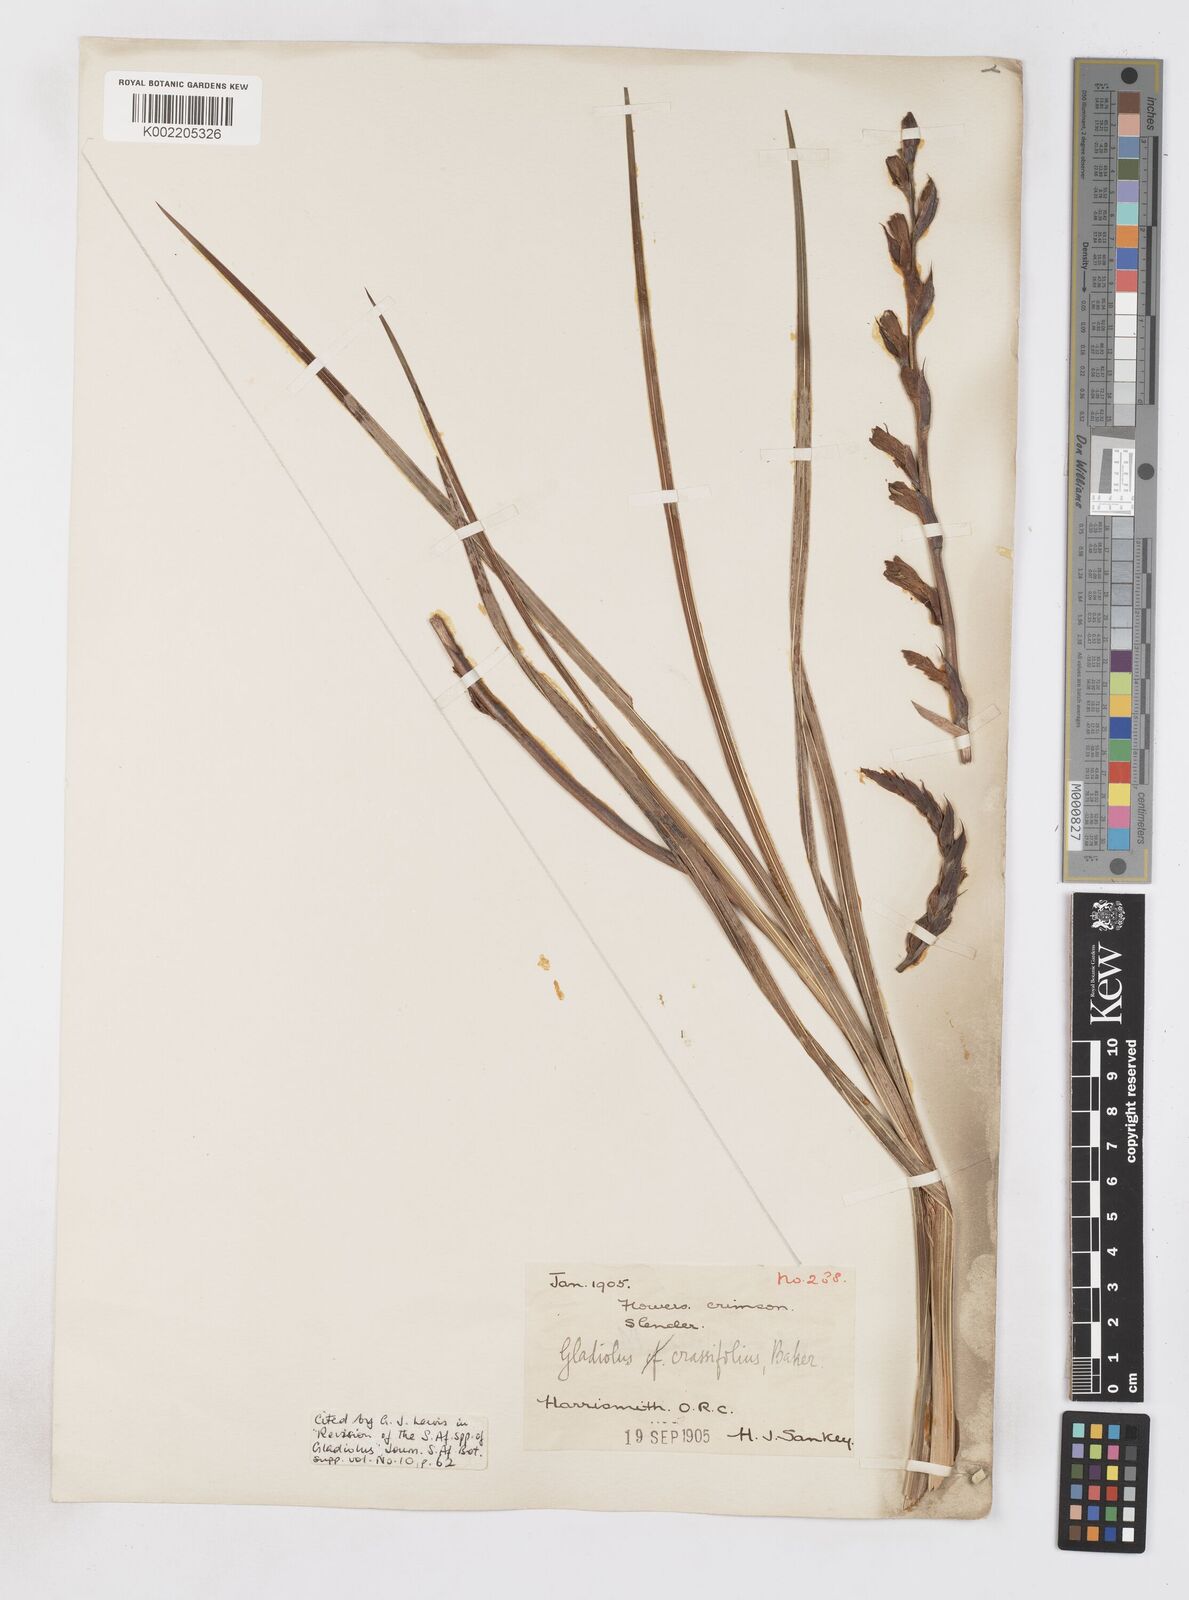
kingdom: Plantae
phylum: Tracheophyta
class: Liliopsida
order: Asparagales
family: Iridaceae
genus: Gladiolus
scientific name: Gladiolus crassifolius
